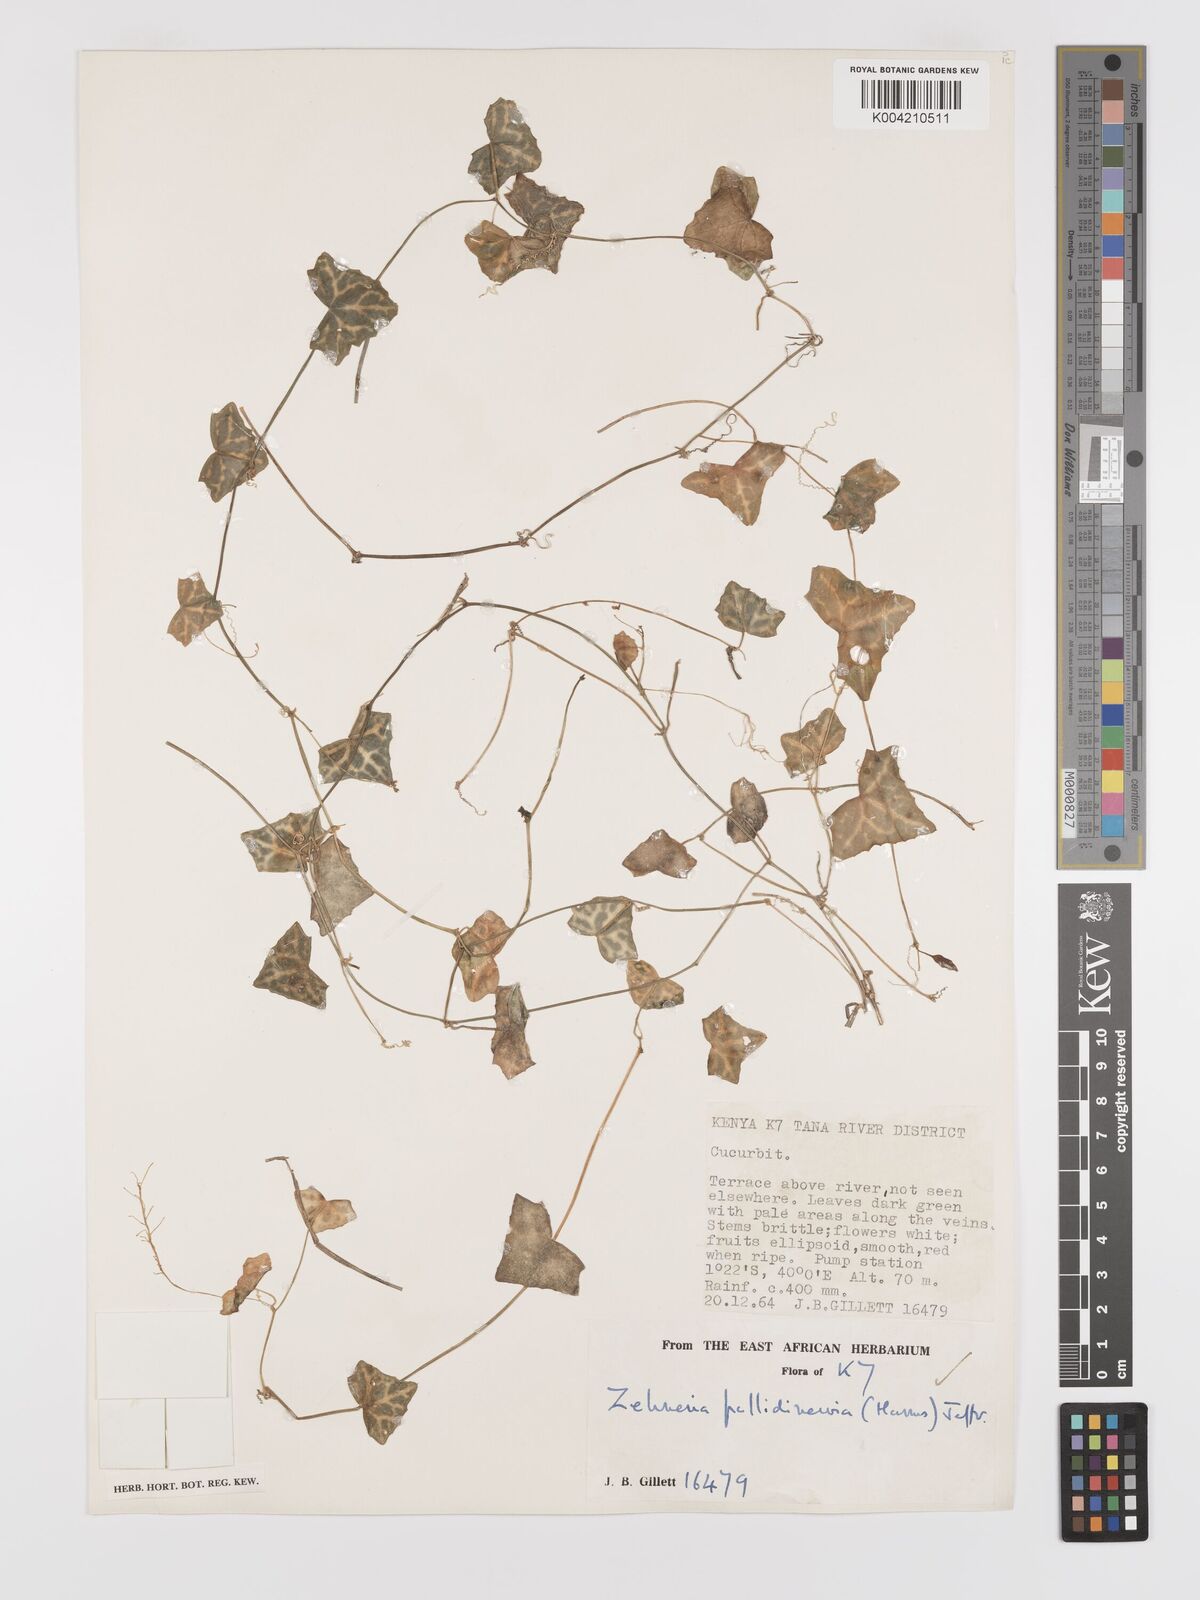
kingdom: Plantae
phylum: Tracheophyta
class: Magnoliopsida
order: Cucurbitales
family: Cucurbitaceae
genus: Zehneria
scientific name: Zehneria pallidinervia
